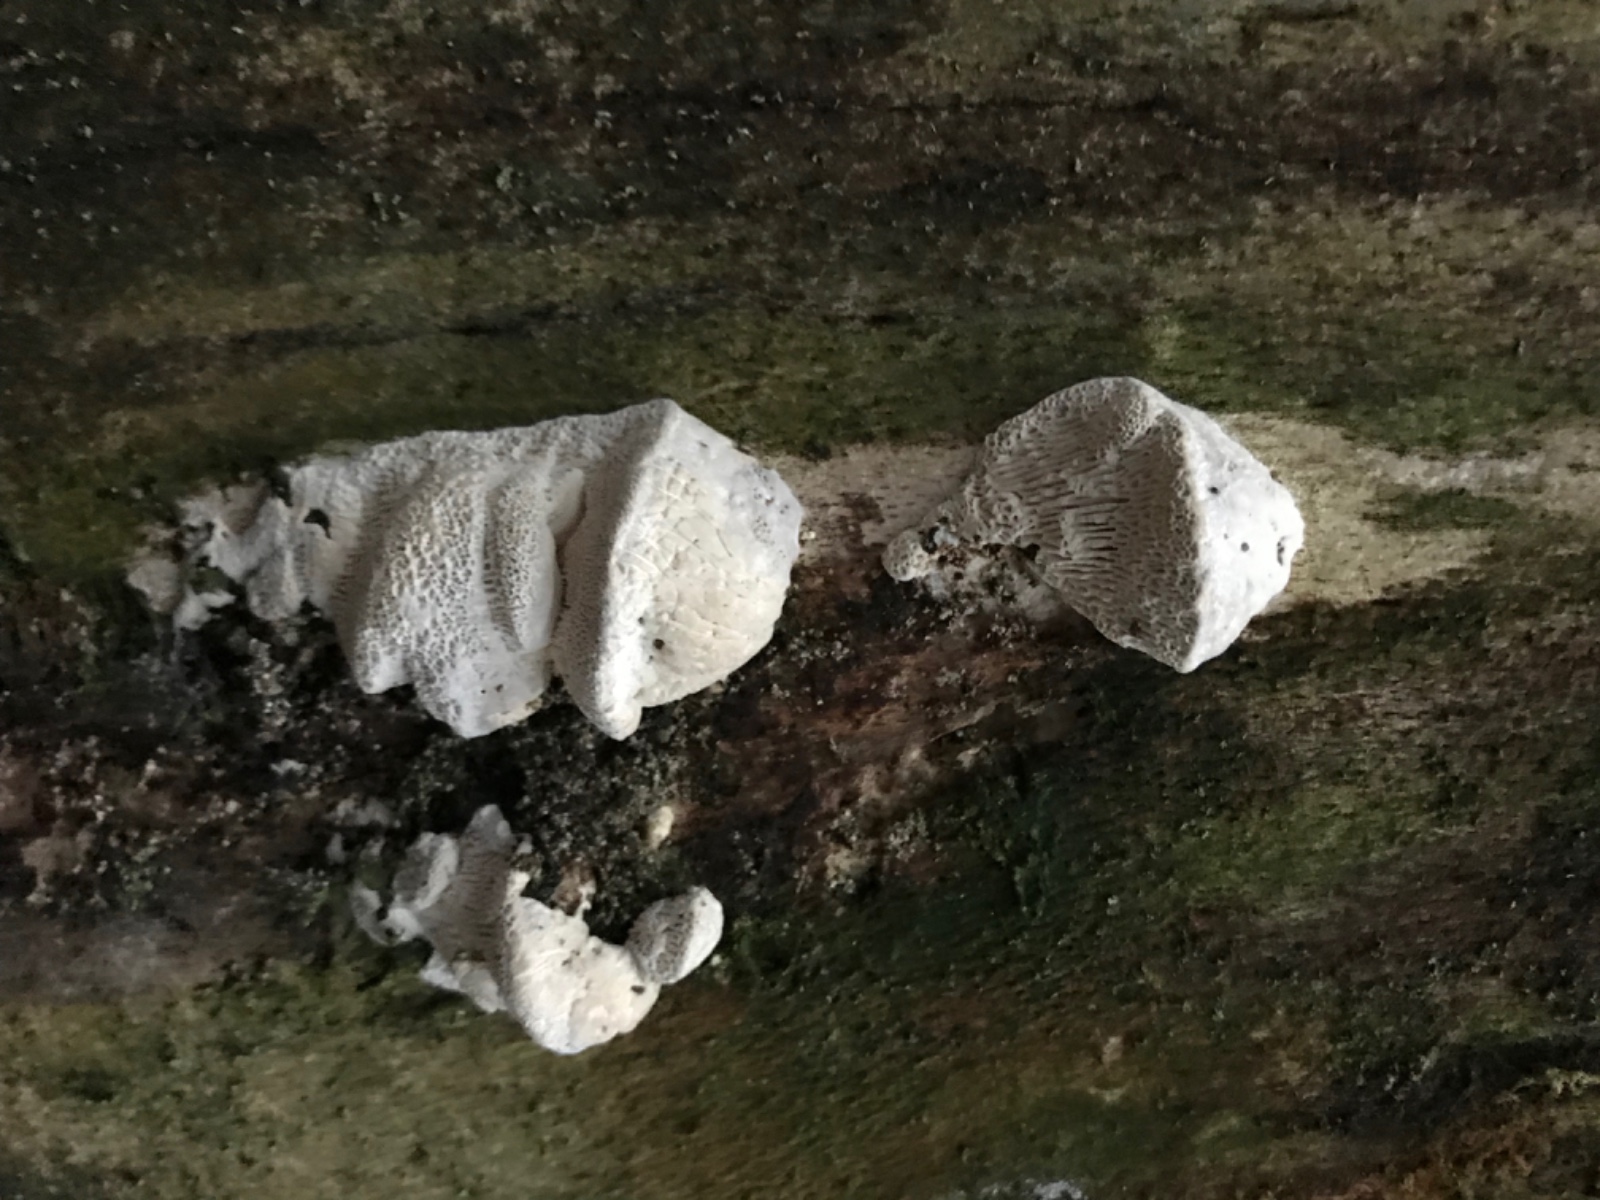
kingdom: Fungi
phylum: Basidiomycota
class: Agaricomycetes
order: Polyporales
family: Polyporaceae
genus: Trametes
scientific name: Trametes gibbosa
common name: puklet læderporesvamp
